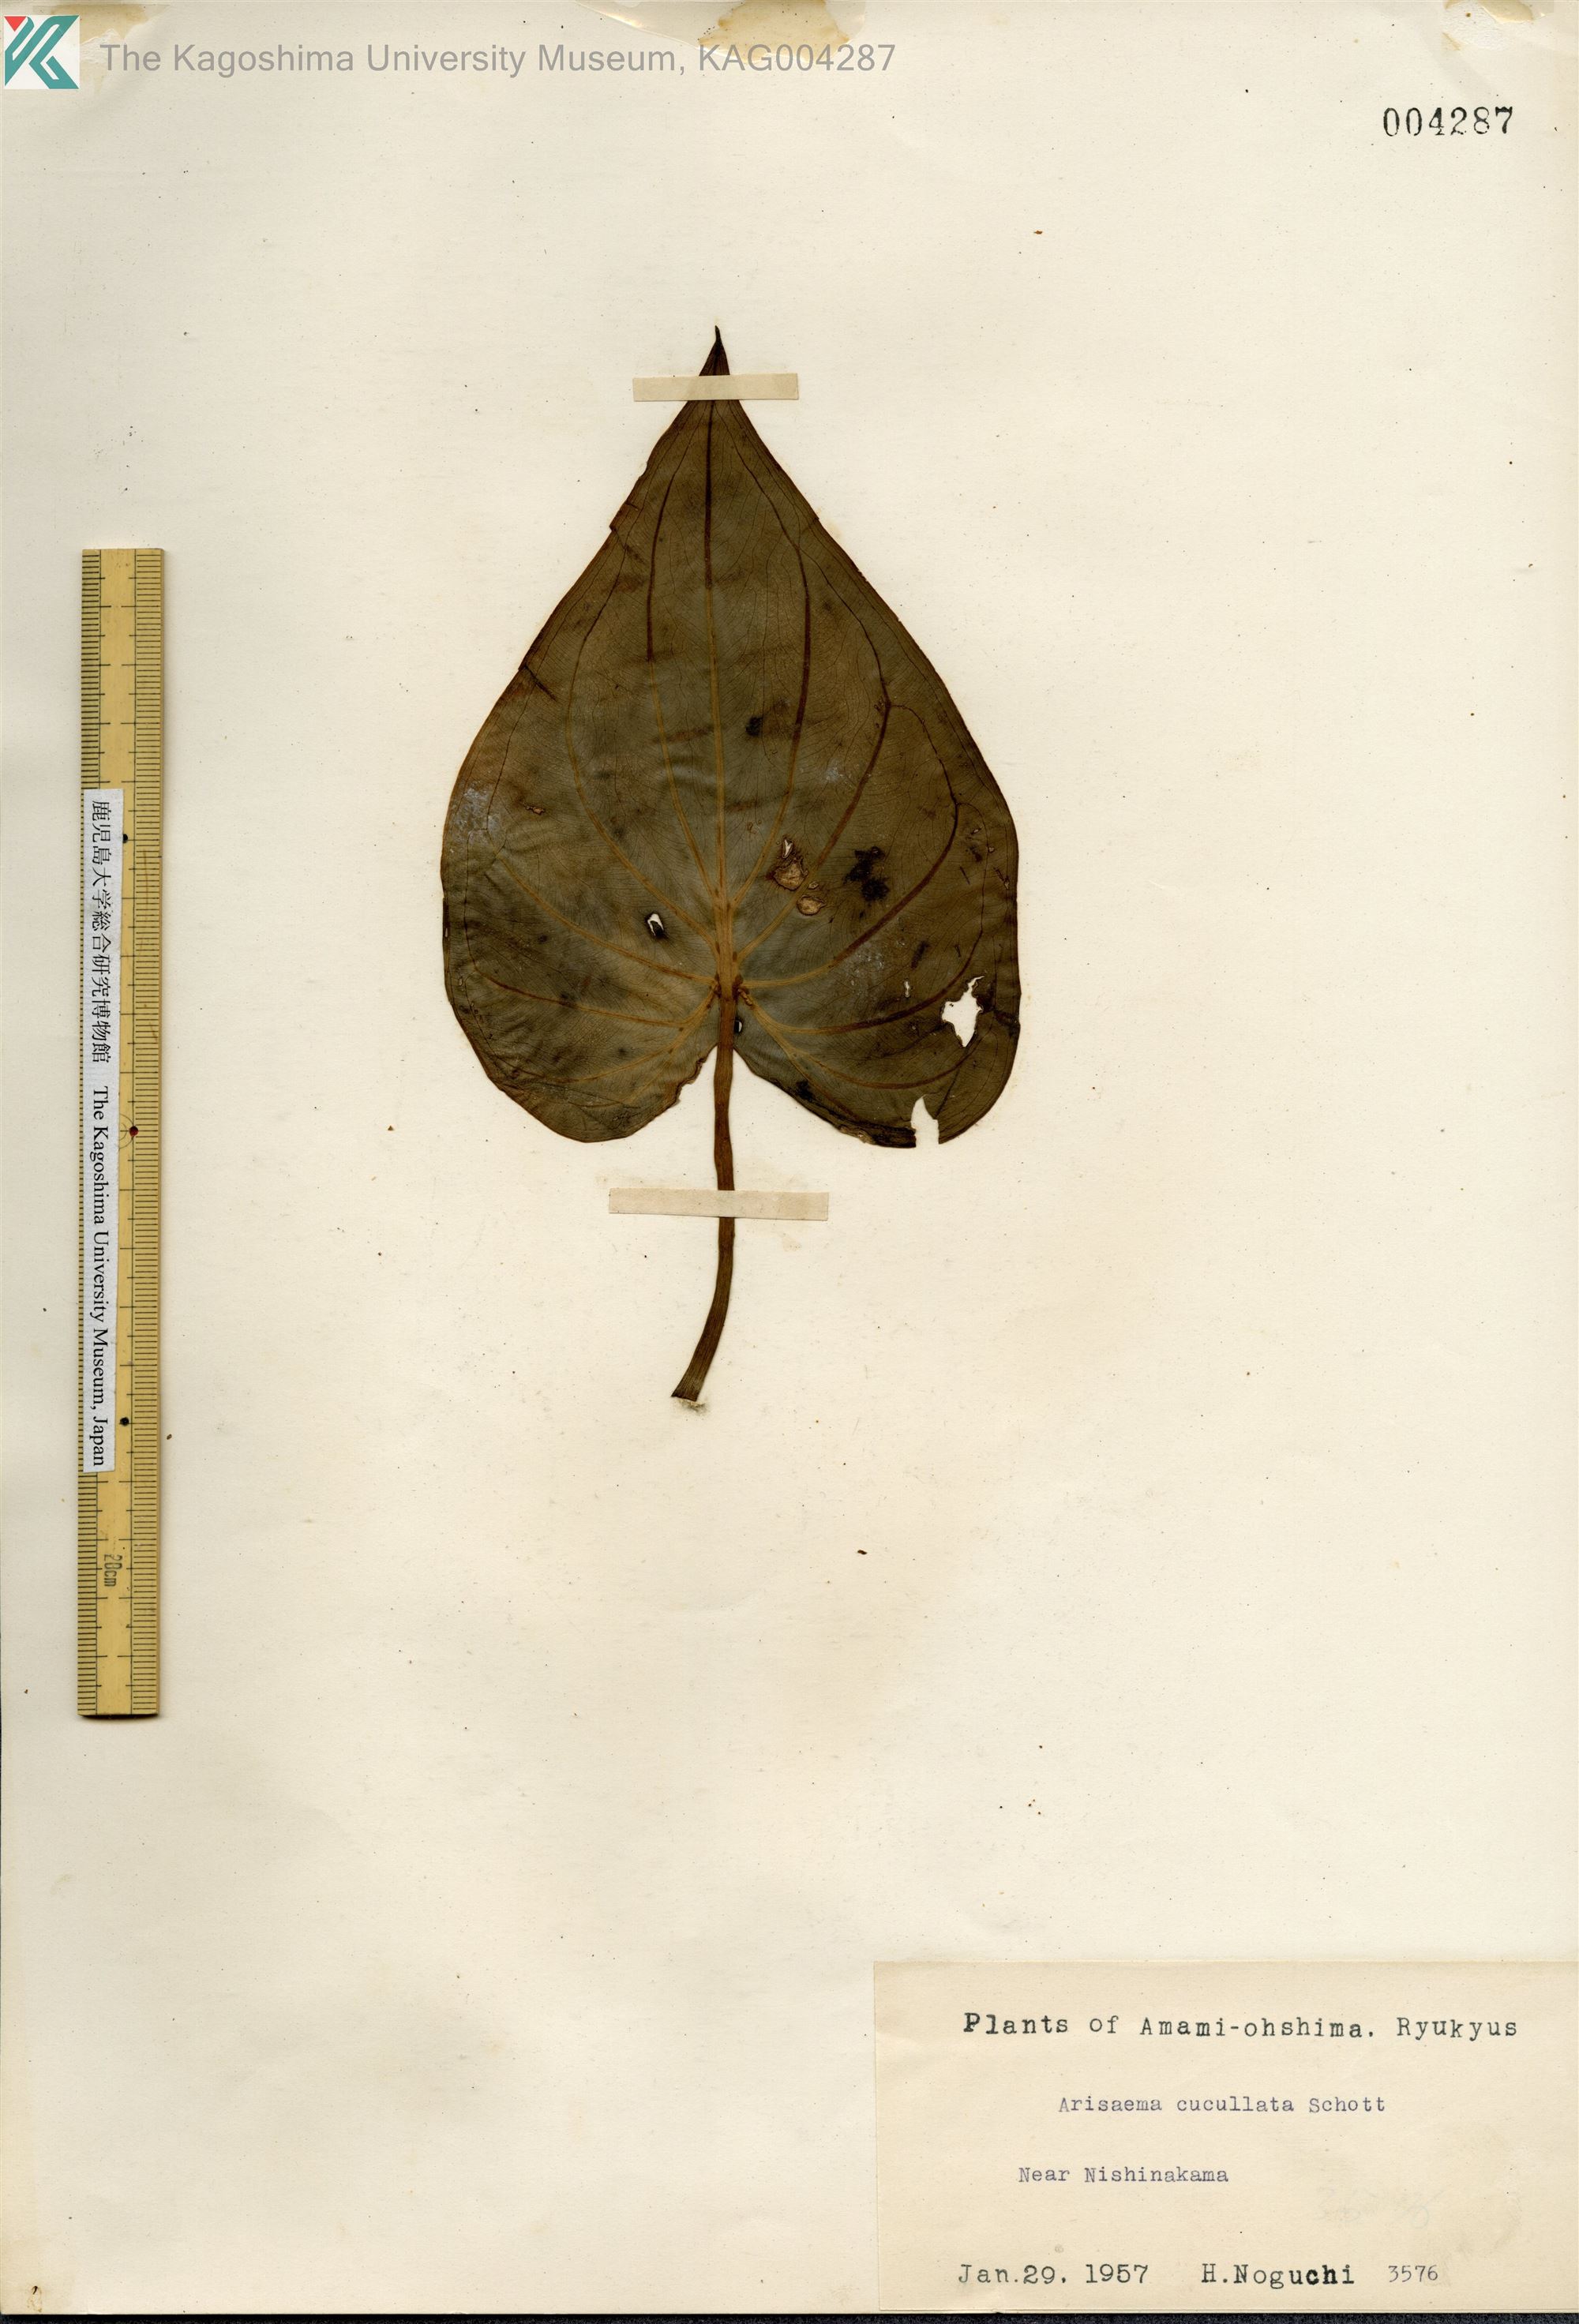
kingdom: Plantae
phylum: Tracheophyta
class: Liliopsida
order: Alismatales
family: Araceae
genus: Alocasia
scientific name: Alocasia cucullata
